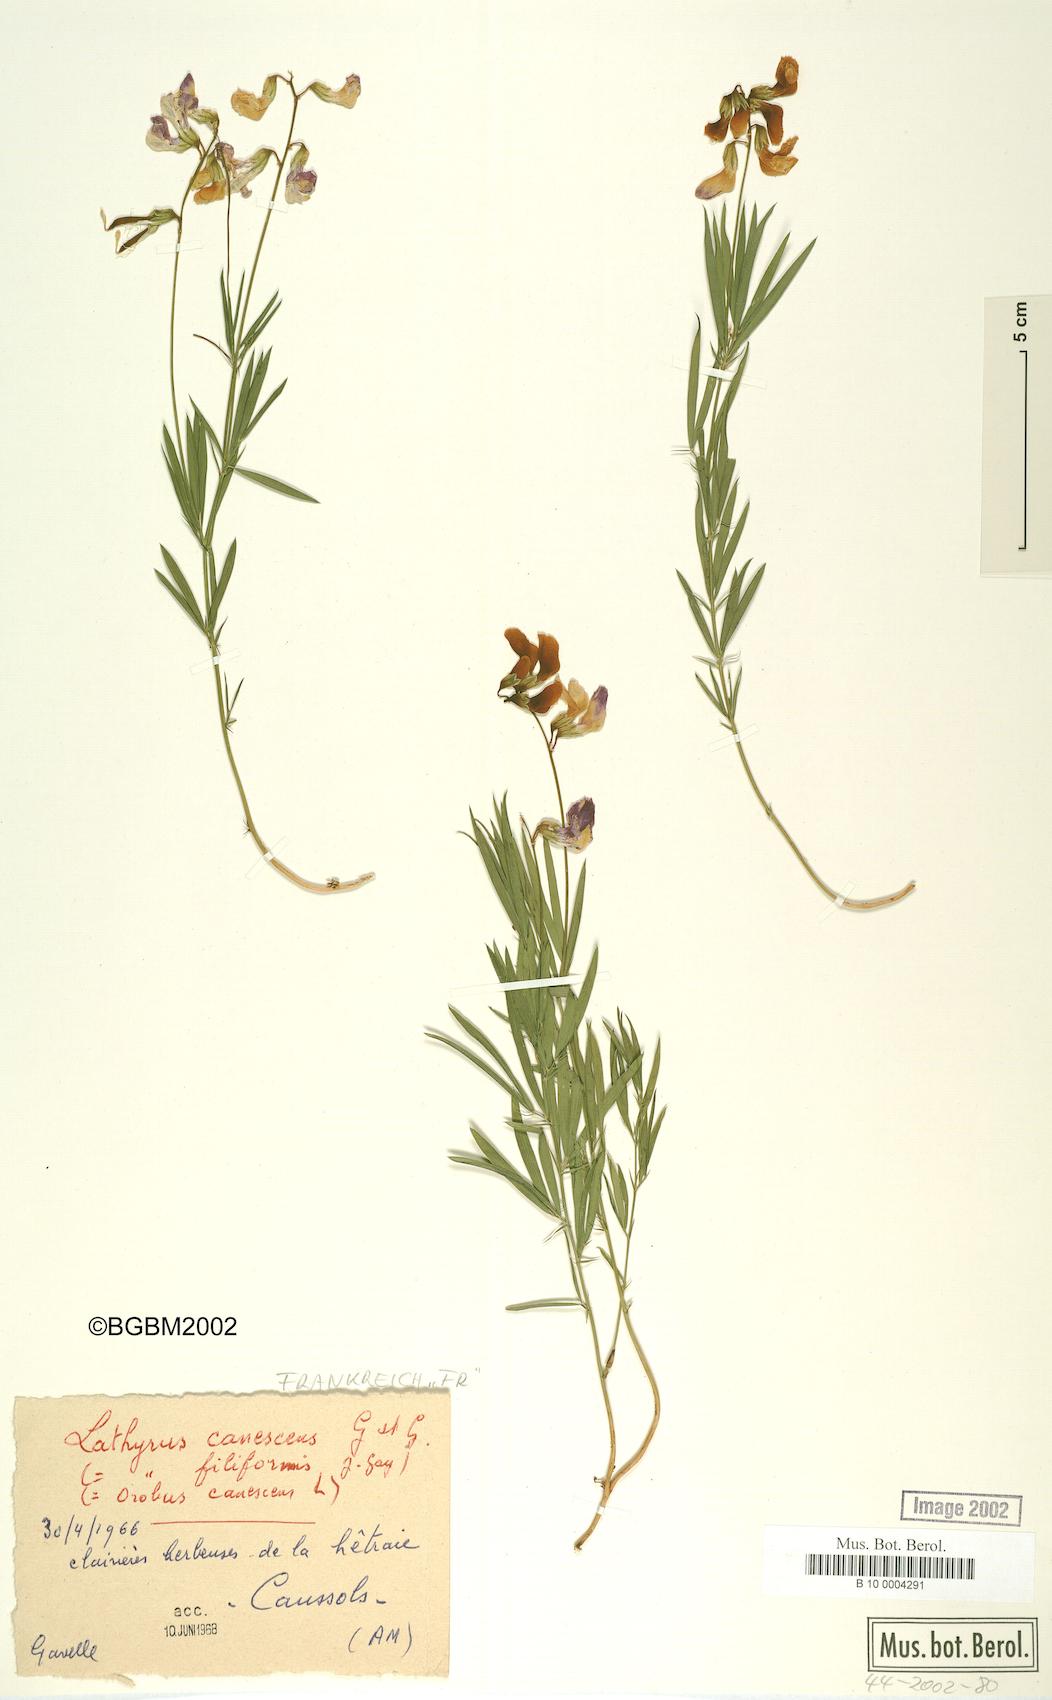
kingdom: Plantae
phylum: Tracheophyta
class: Magnoliopsida
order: Fabales
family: Fabaceae
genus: Lathyrus
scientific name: Lathyrus filiformis
